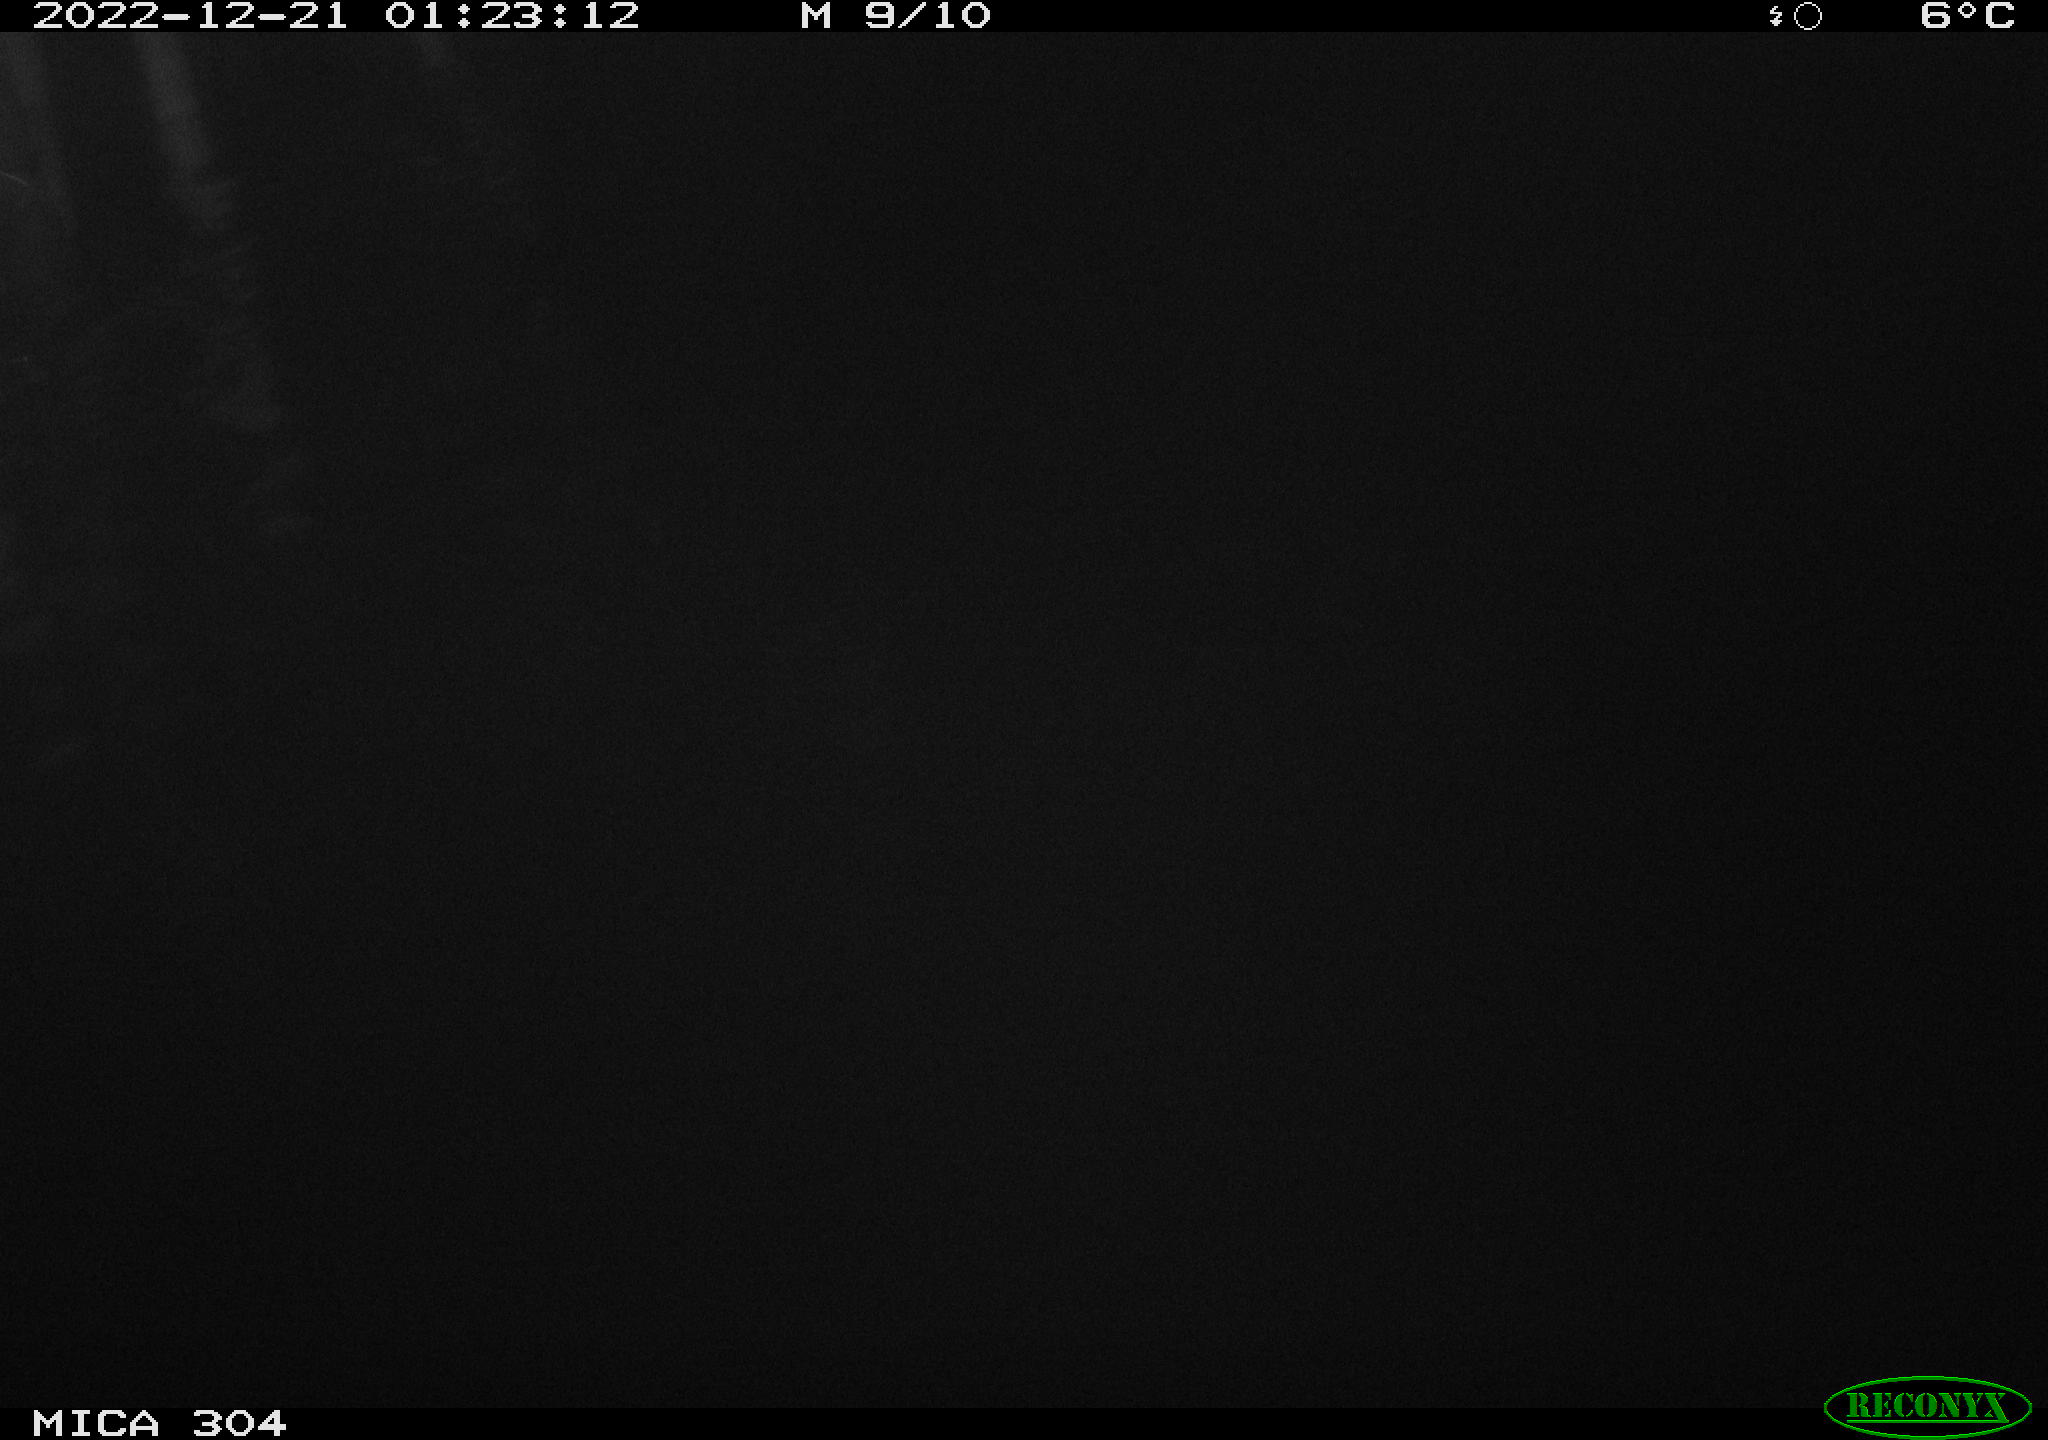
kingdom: Animalia
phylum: Chordata
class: Mammalia
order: Rodentia
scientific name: Rodentia
